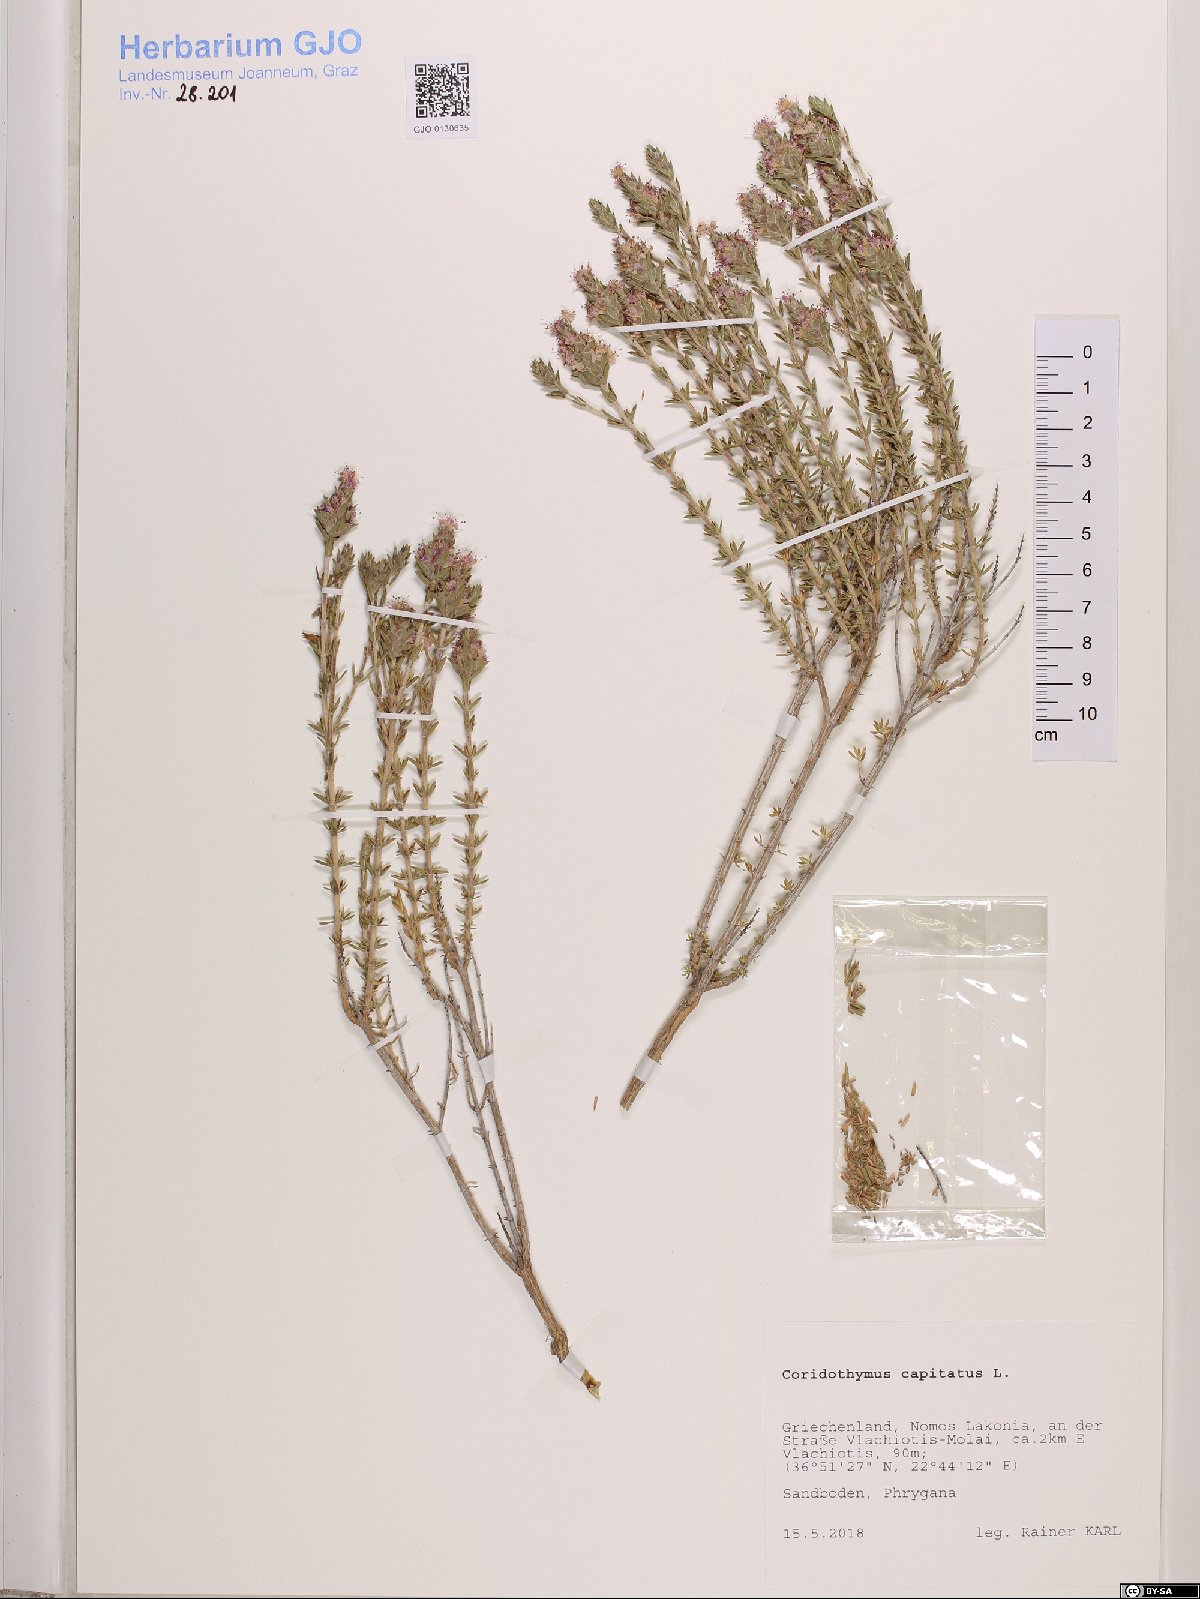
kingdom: Plantae
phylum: Tracheophyta
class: Magnoliopsida
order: Lamiales
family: Lamiaceae
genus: Thymbra
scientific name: Thymbra capitata
